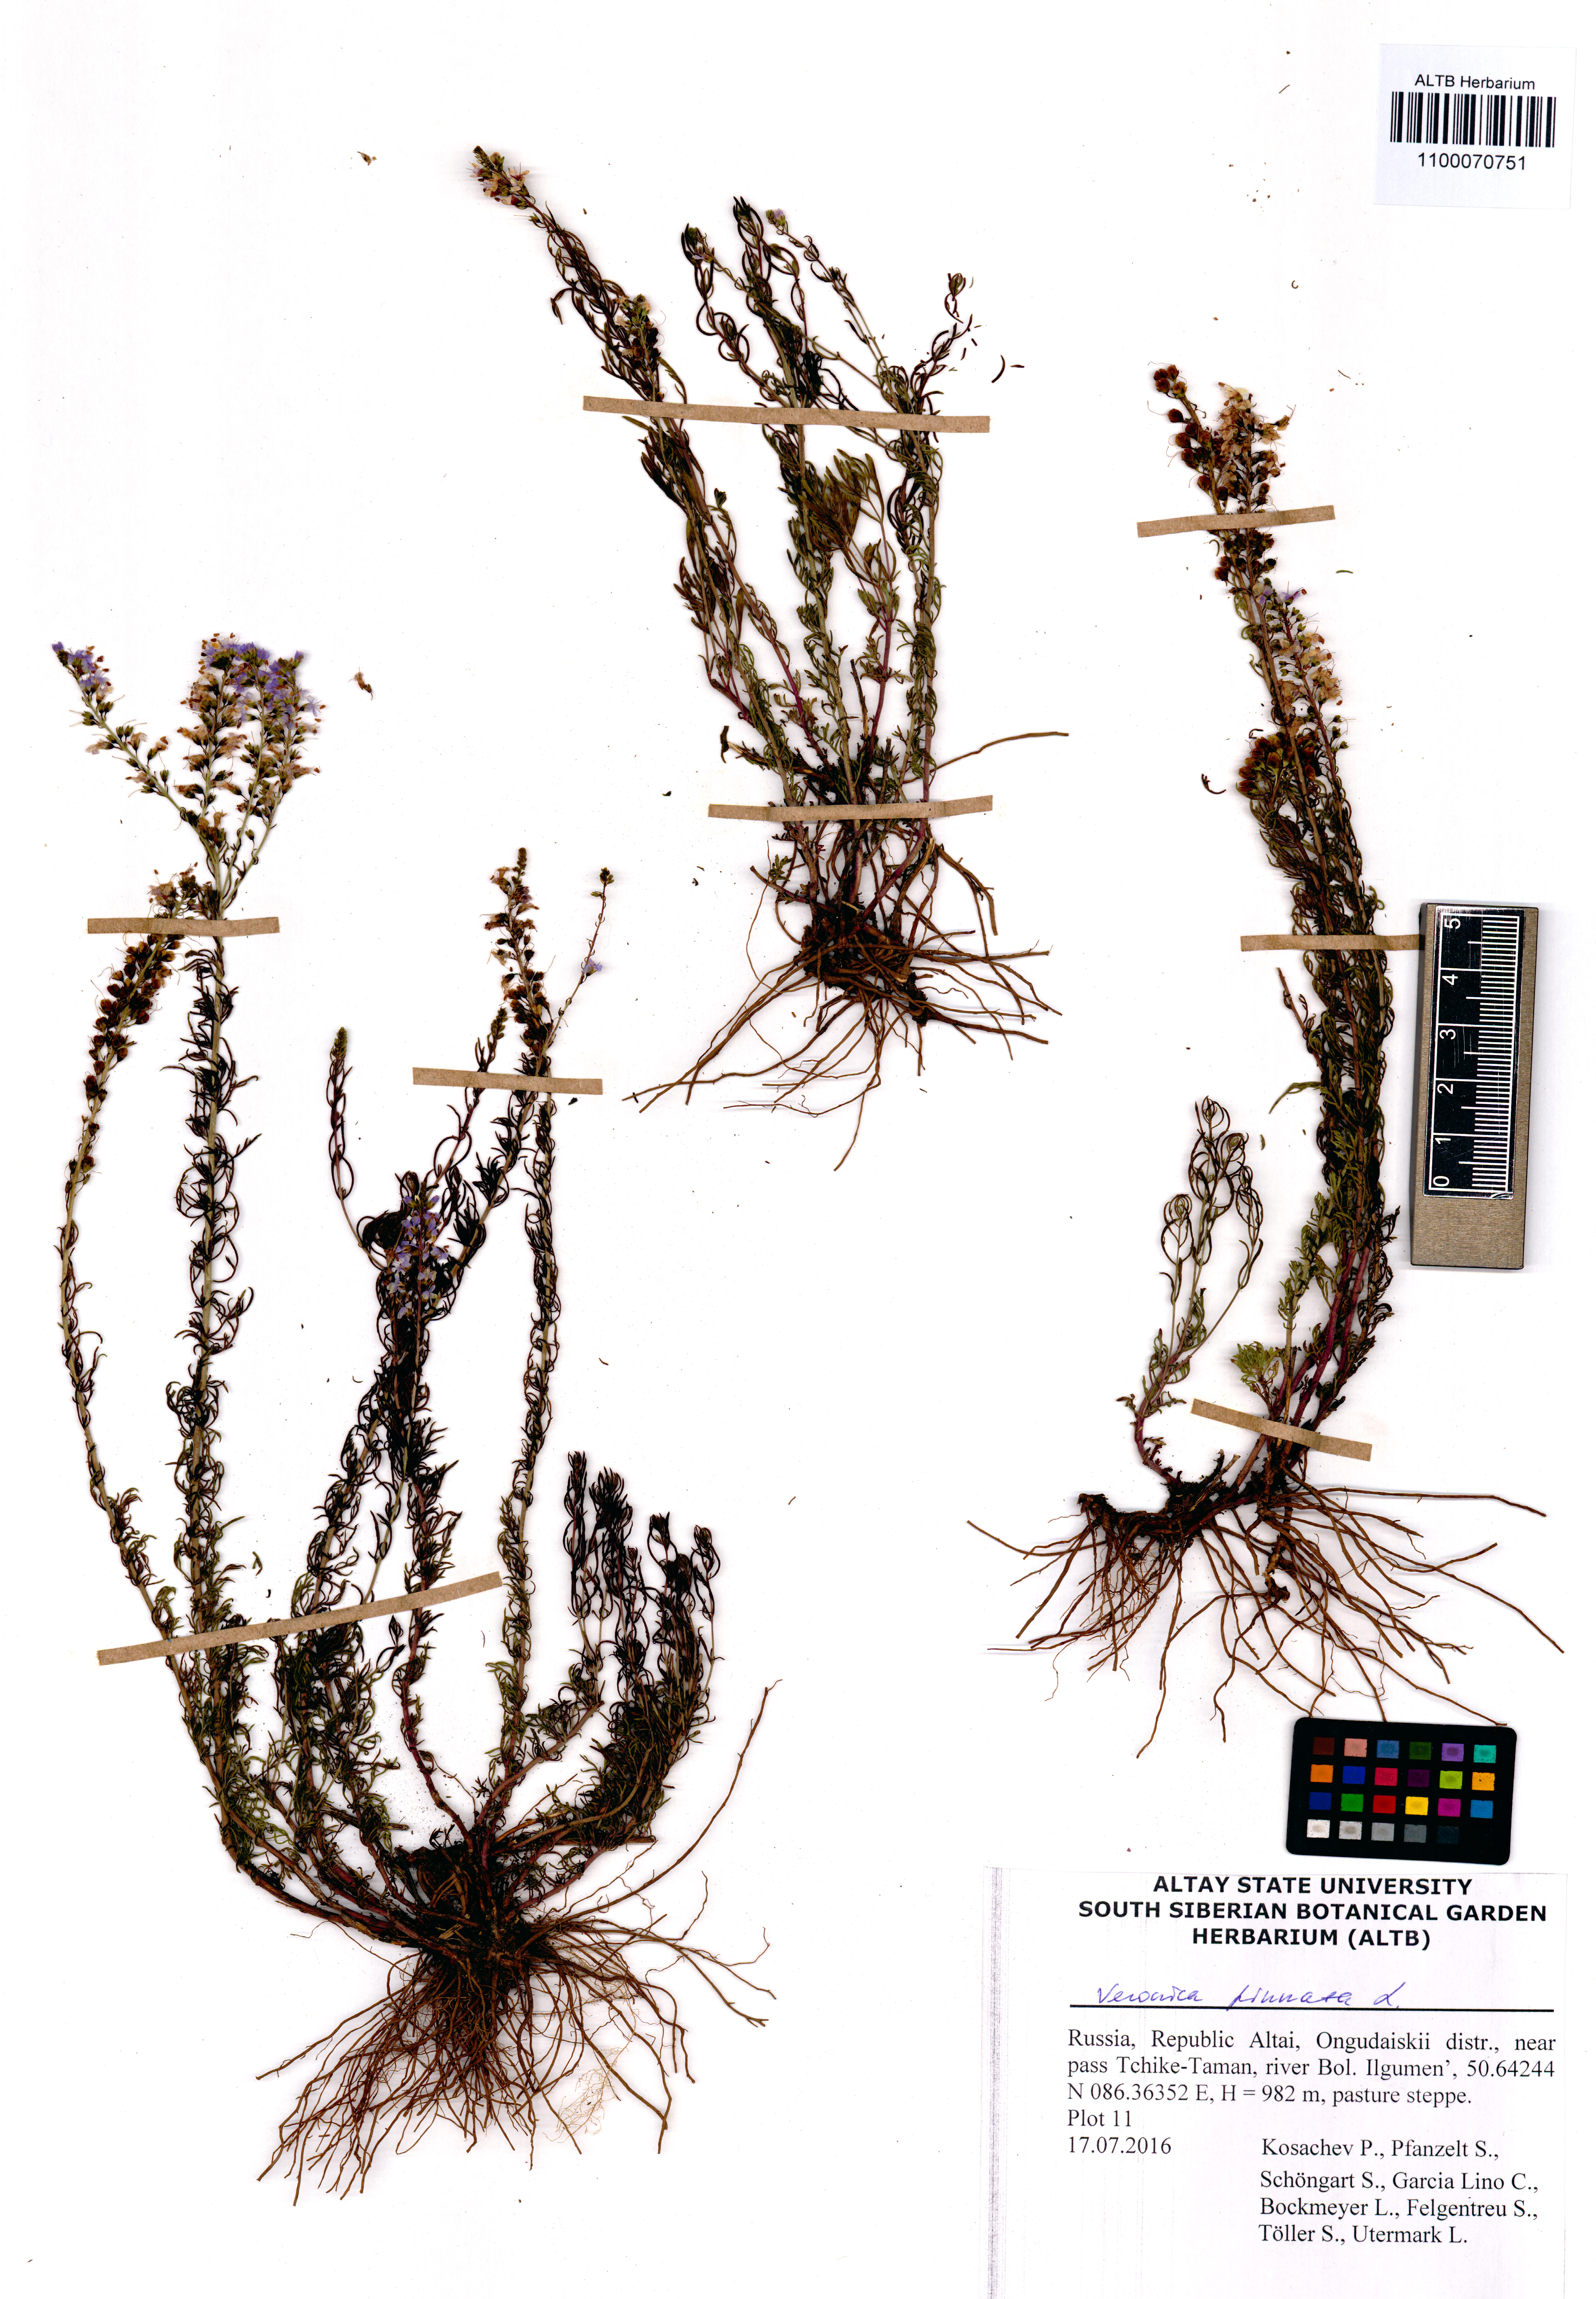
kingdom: Plantae
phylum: Tracheophyta
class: Magnoliopsida
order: Lamiales
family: Plantaginaceae
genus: Veronica
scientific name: Veronica pinnata
